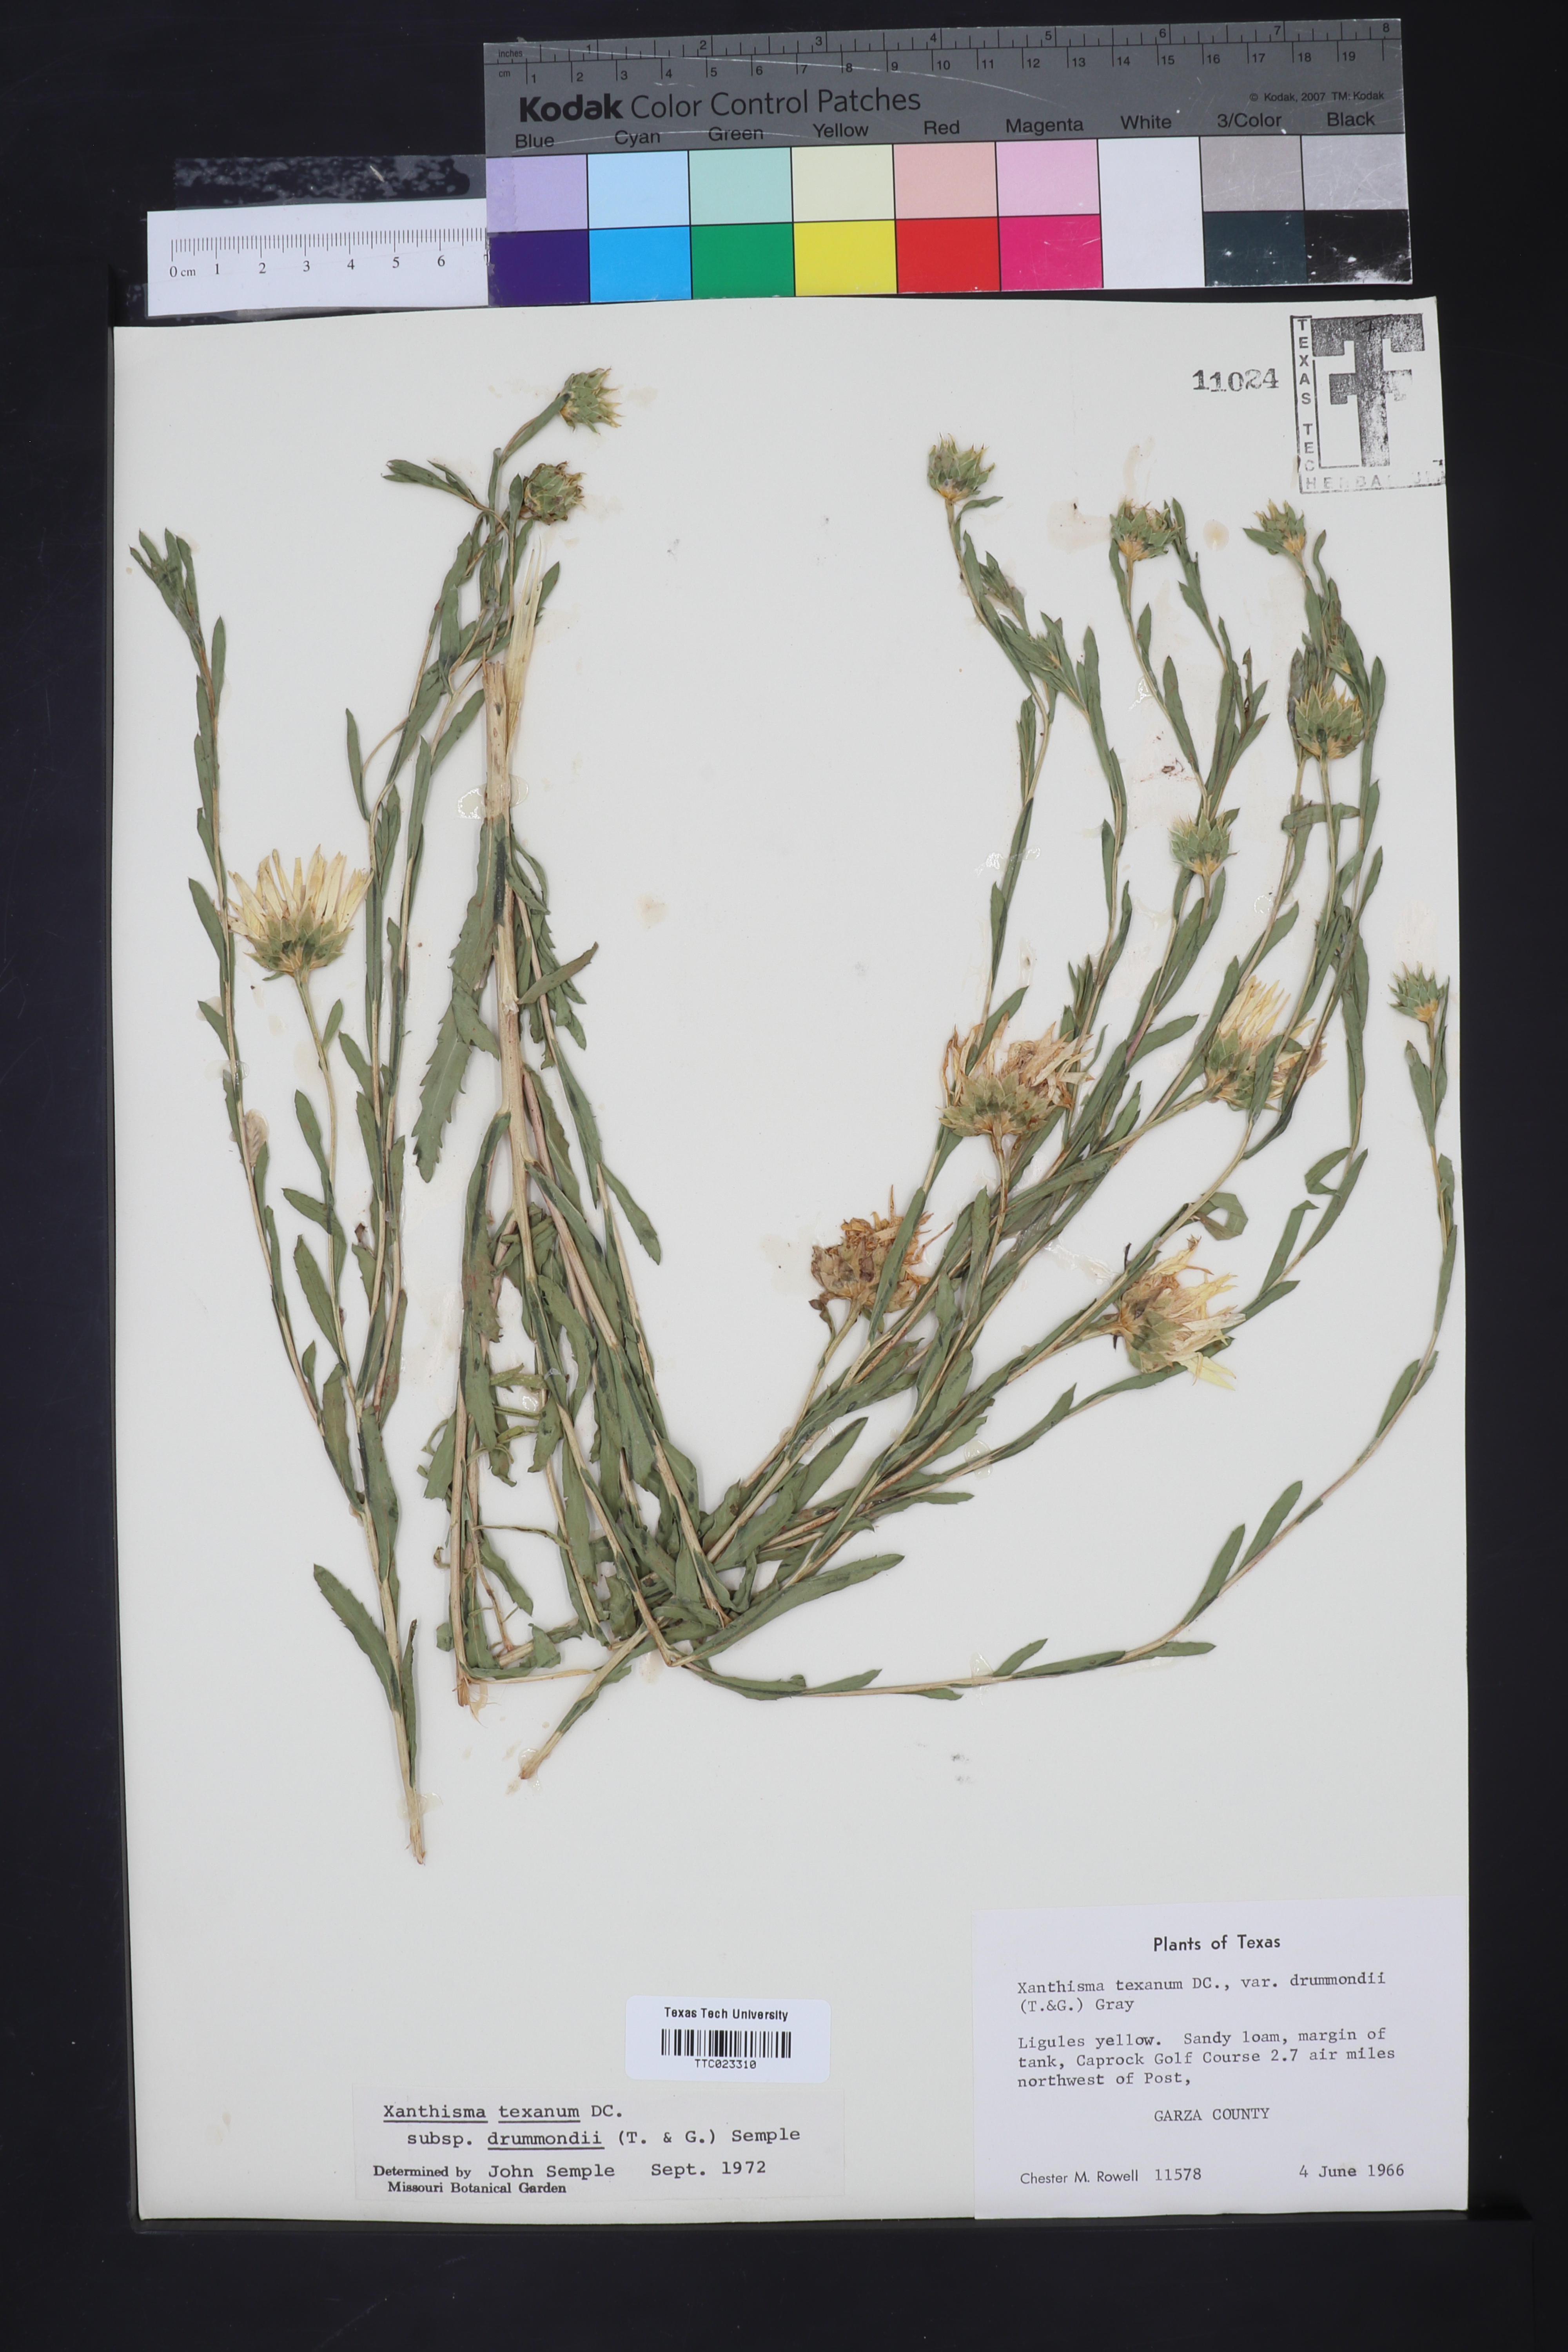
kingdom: Plantae
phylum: Tracheophyta
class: Magnoliopsida
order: Asterales
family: Asteraceae
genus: Xanthisma
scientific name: Xanthisma texanum
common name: Texas sleepy daisy
